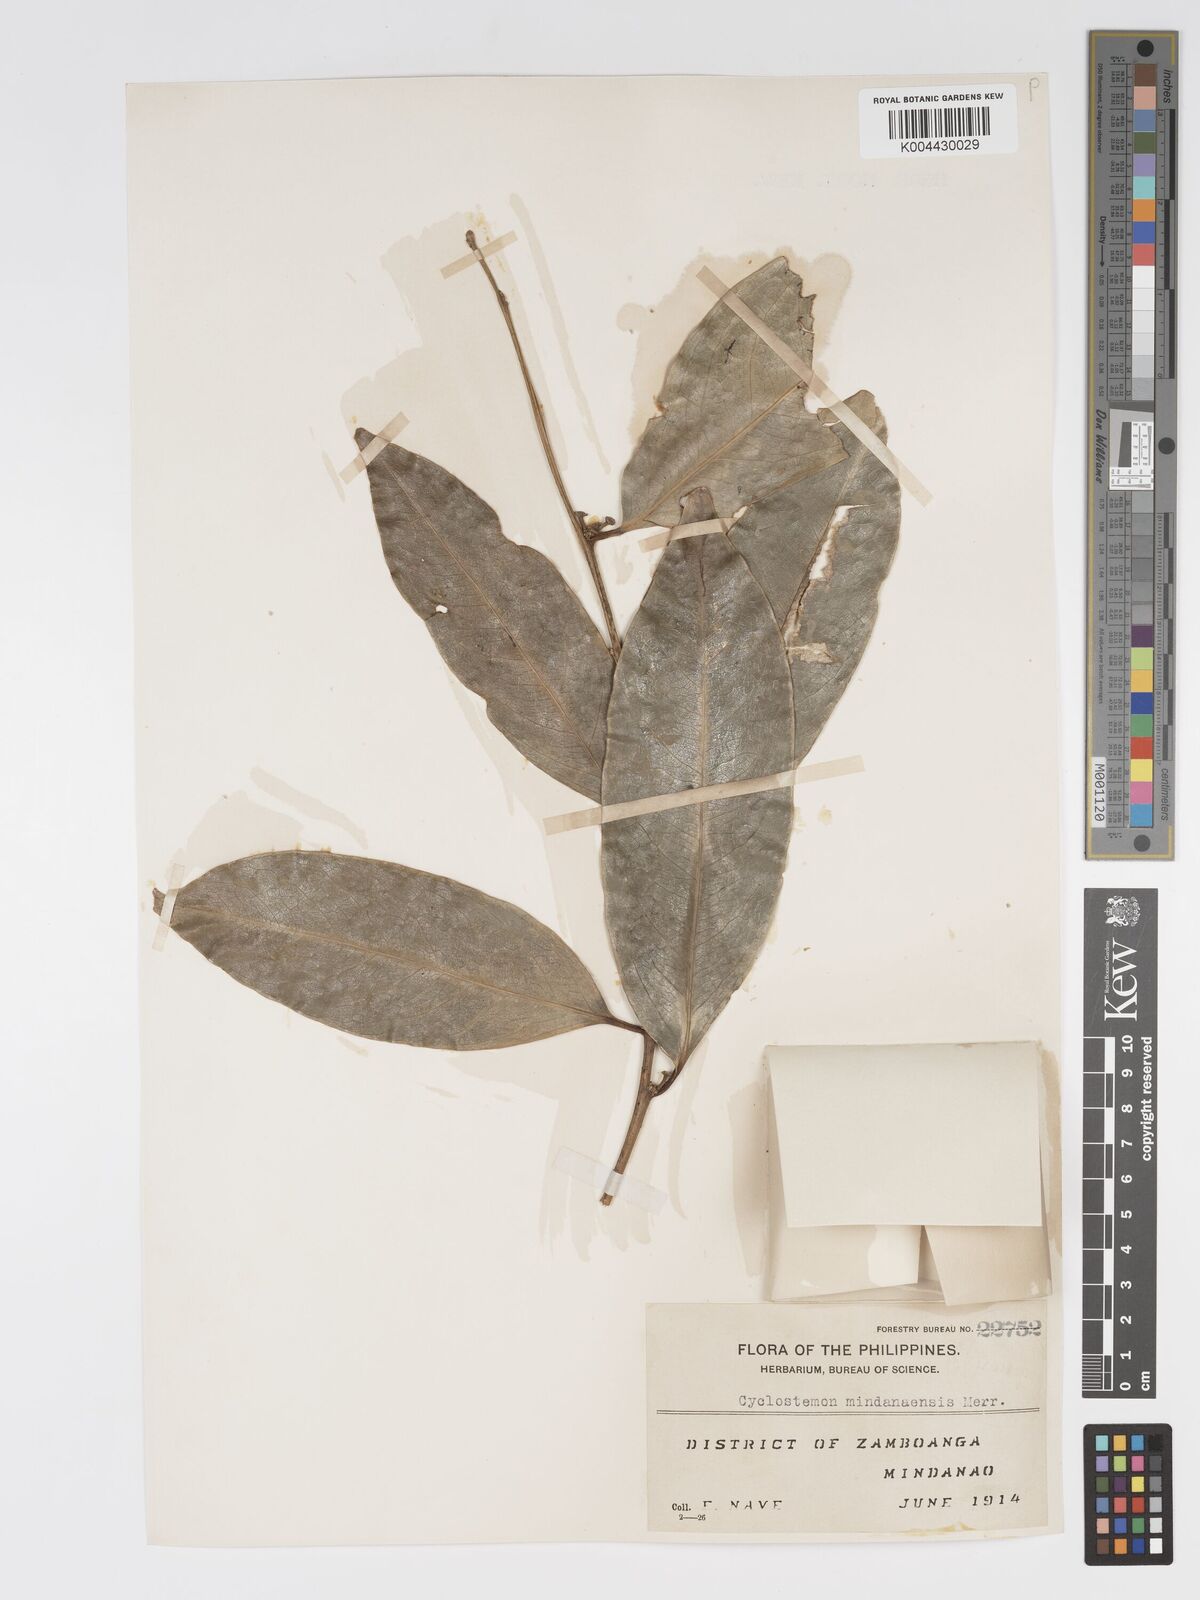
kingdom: Plantae
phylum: Tracheophyta
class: Magnoliopsida
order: Malpighiales
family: Putranjivaceae
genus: Drypetes
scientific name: Drypetes sibuyanensis
